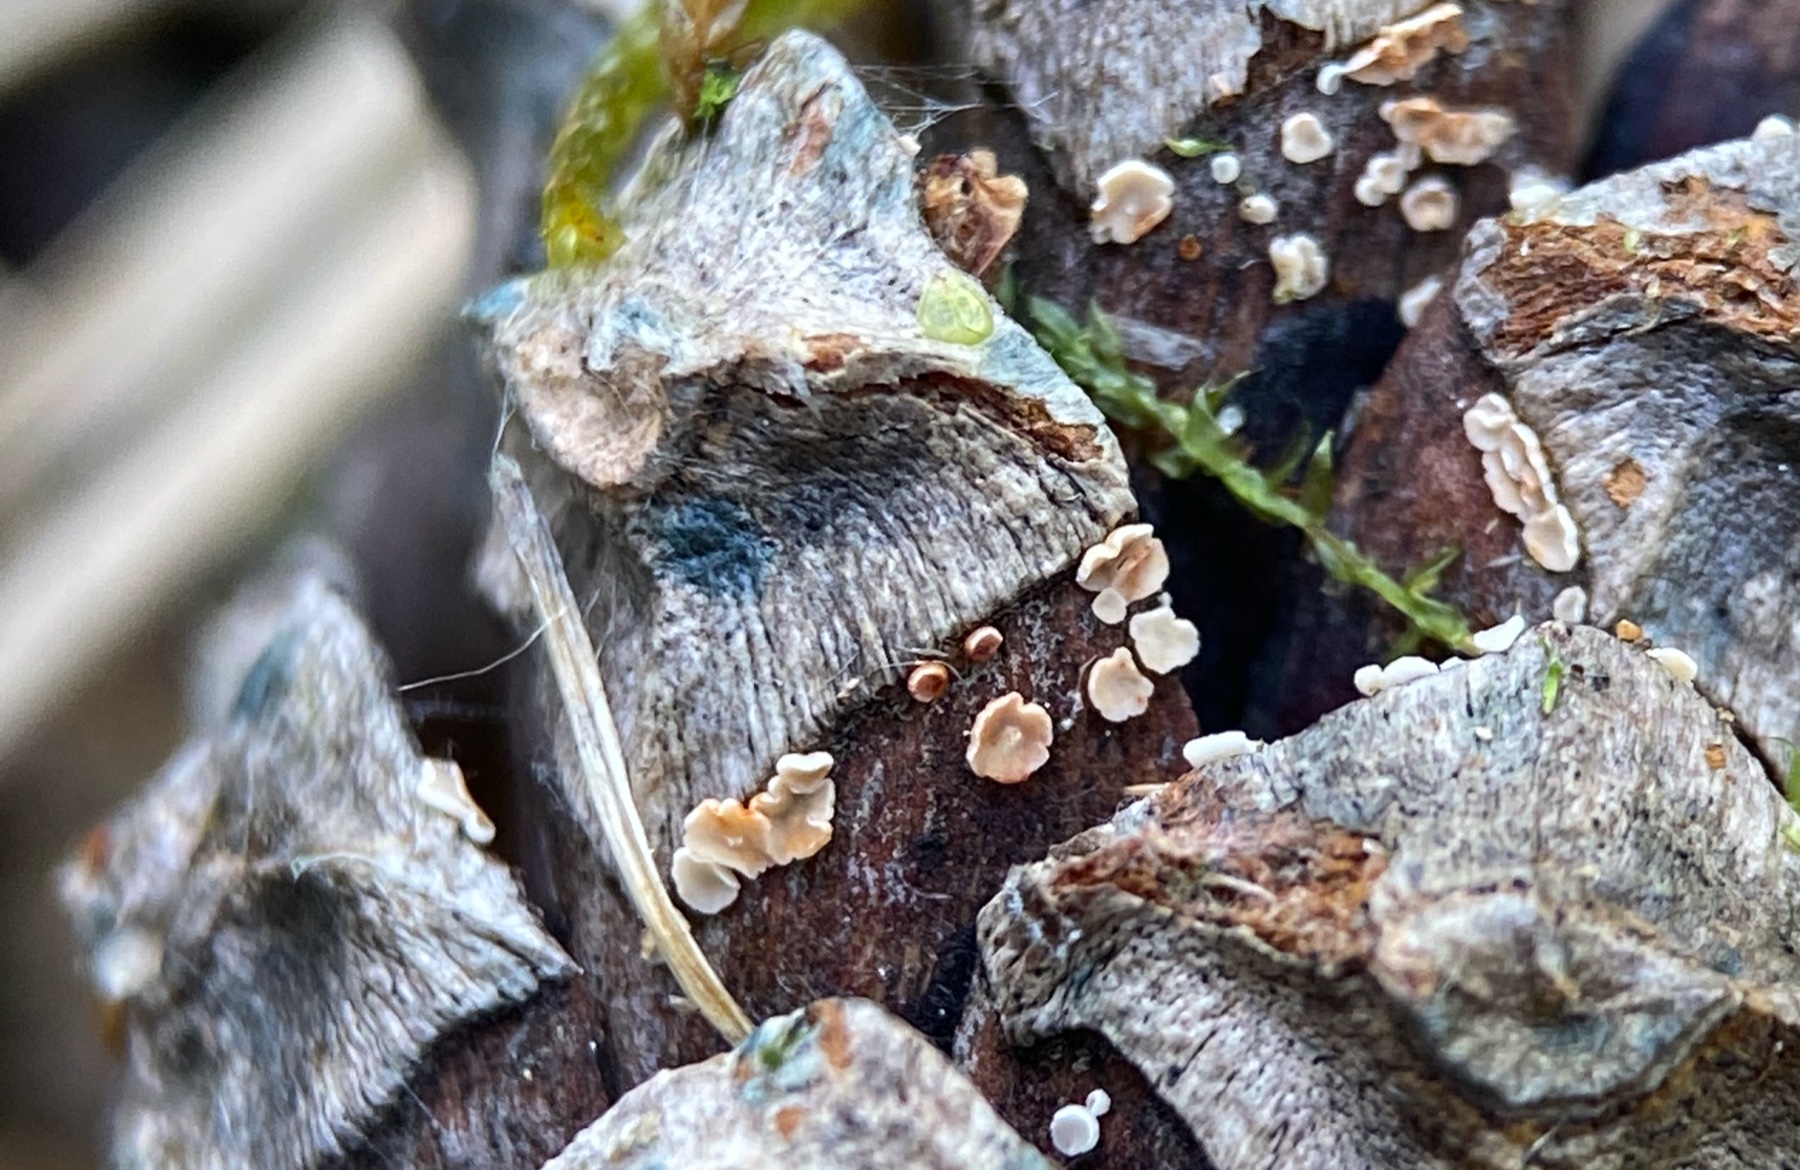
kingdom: Fungi
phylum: Ascomycota
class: Leotiomycetes
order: Helotiales
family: Pezizellaceae
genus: Calycina
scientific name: Calycina conorum
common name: kogle-gulskive
